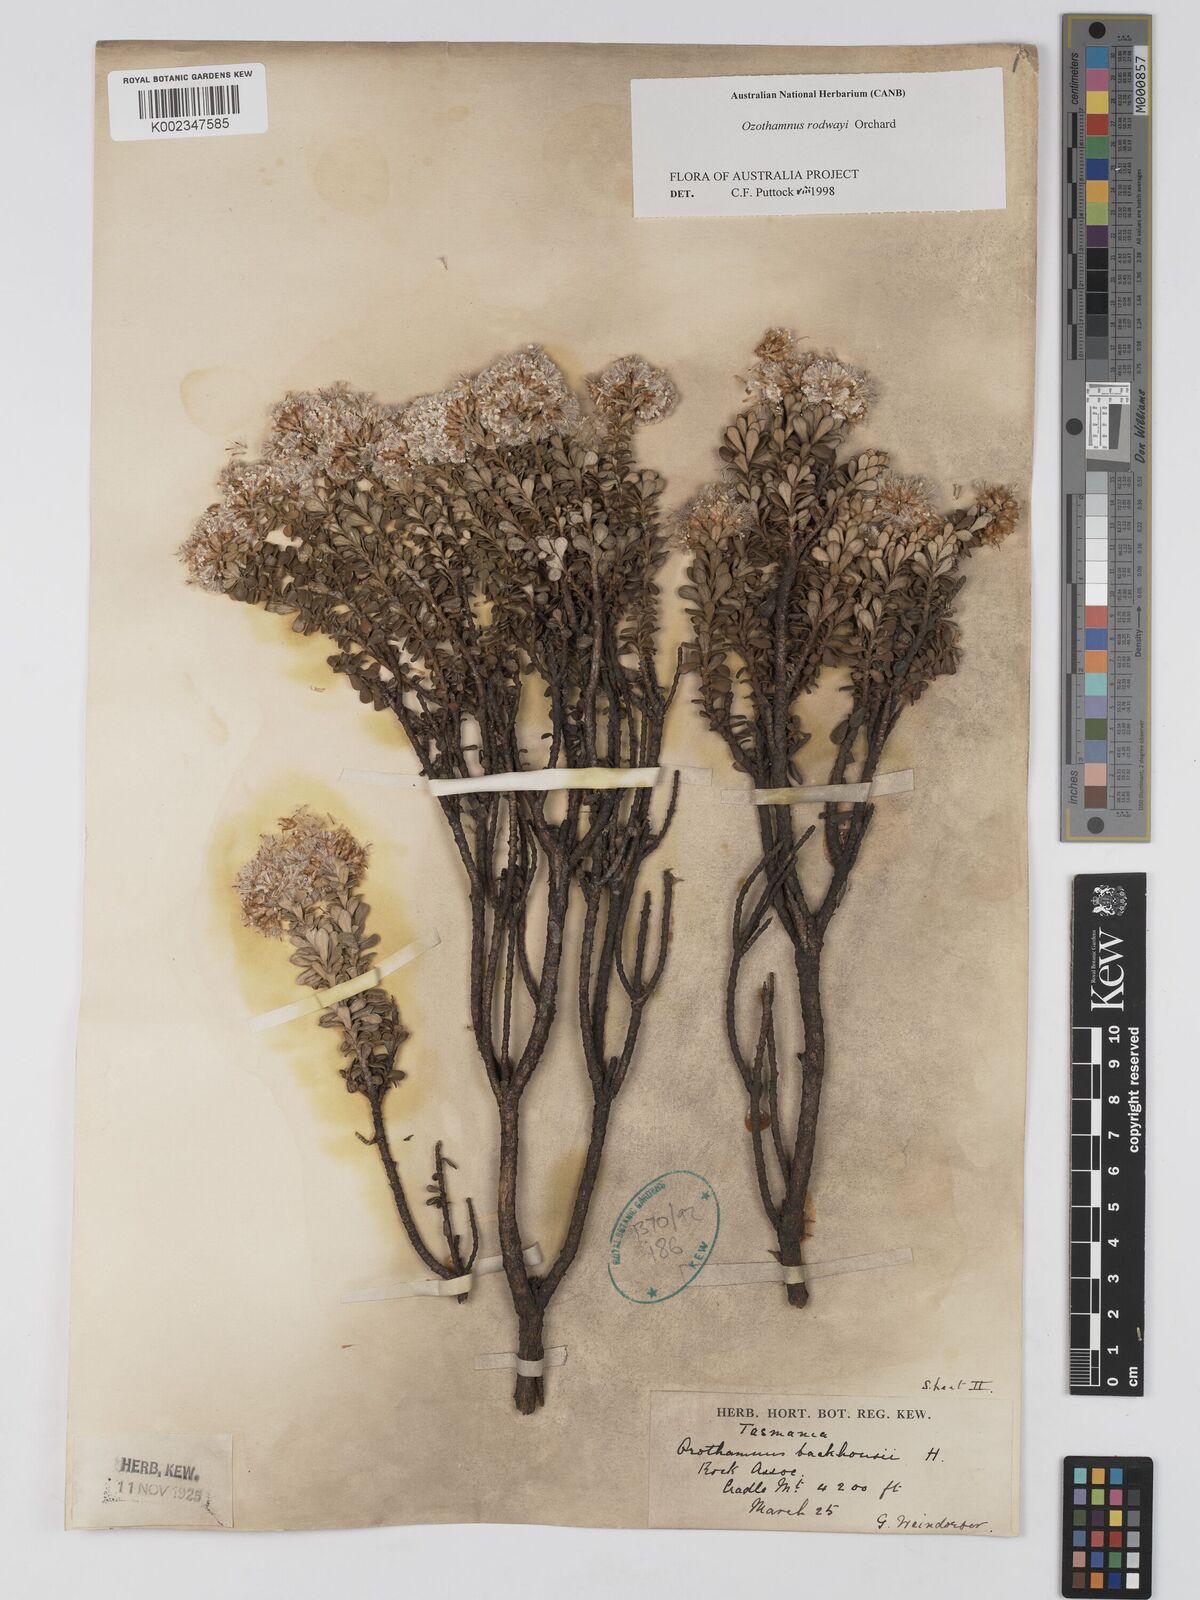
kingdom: Plantae
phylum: Tracheophyta
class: Magnoliopsida
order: Asterales
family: Asteraceae
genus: Ozothamnus
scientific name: Ozothamnus rodwayi
